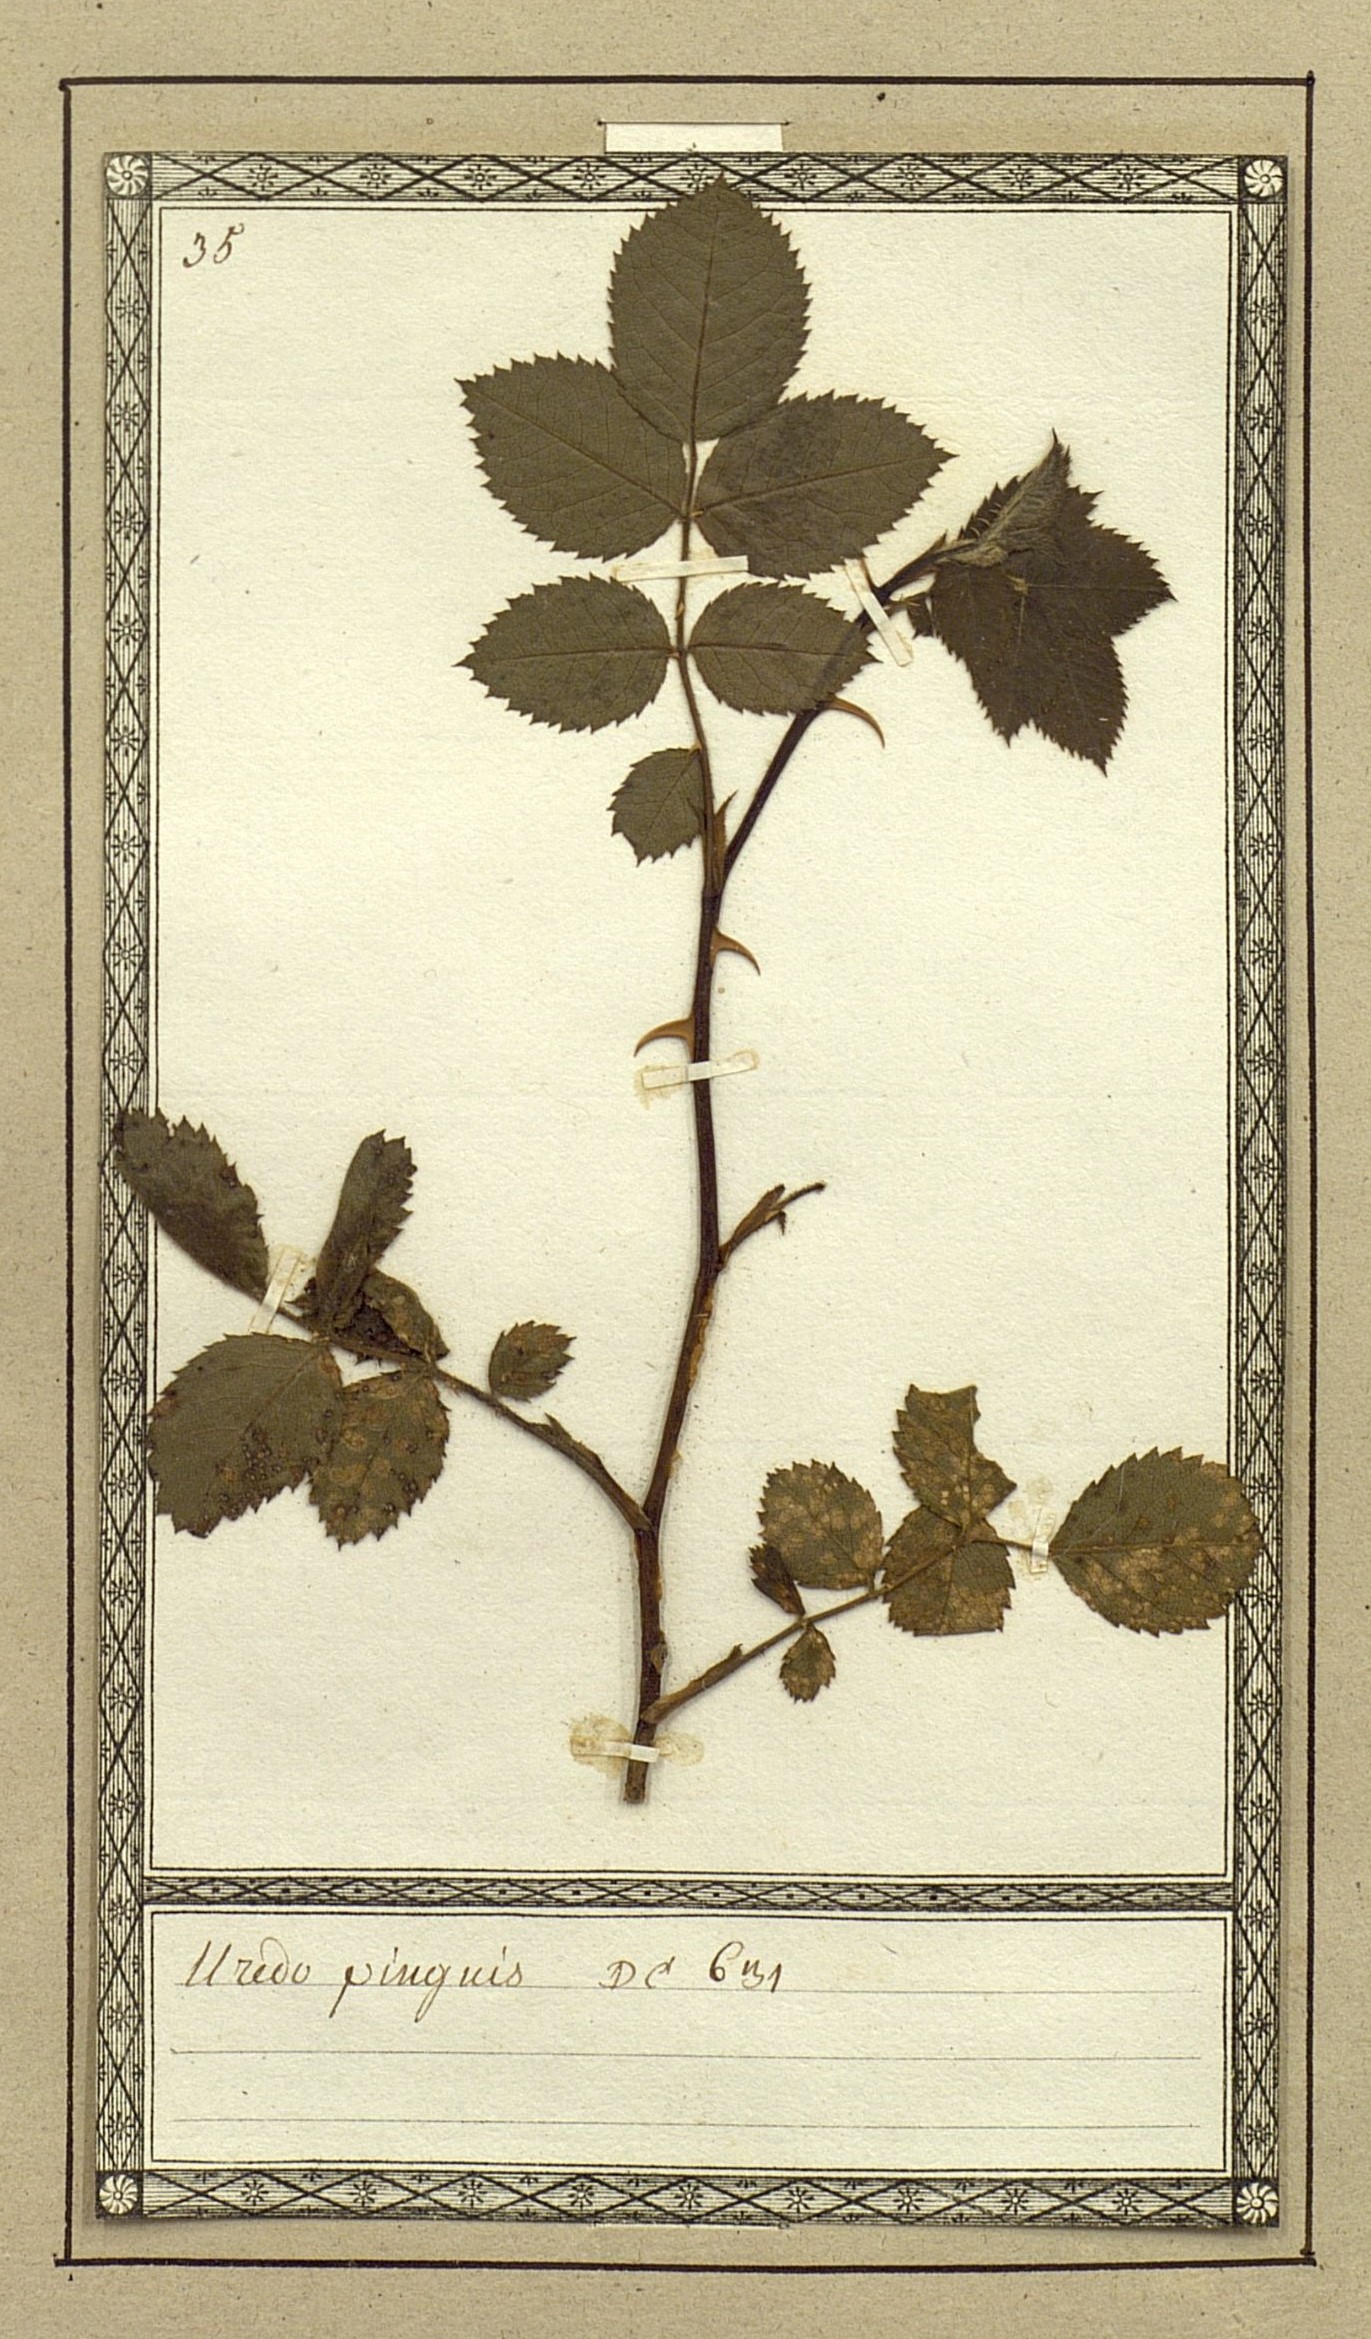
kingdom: Fungi
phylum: Basidiomycota
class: Pucciniomycetes
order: Pucciniales
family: Phragmidiaceae
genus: Phragmidium
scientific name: Phragmidium mucronatum
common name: Rose rust
